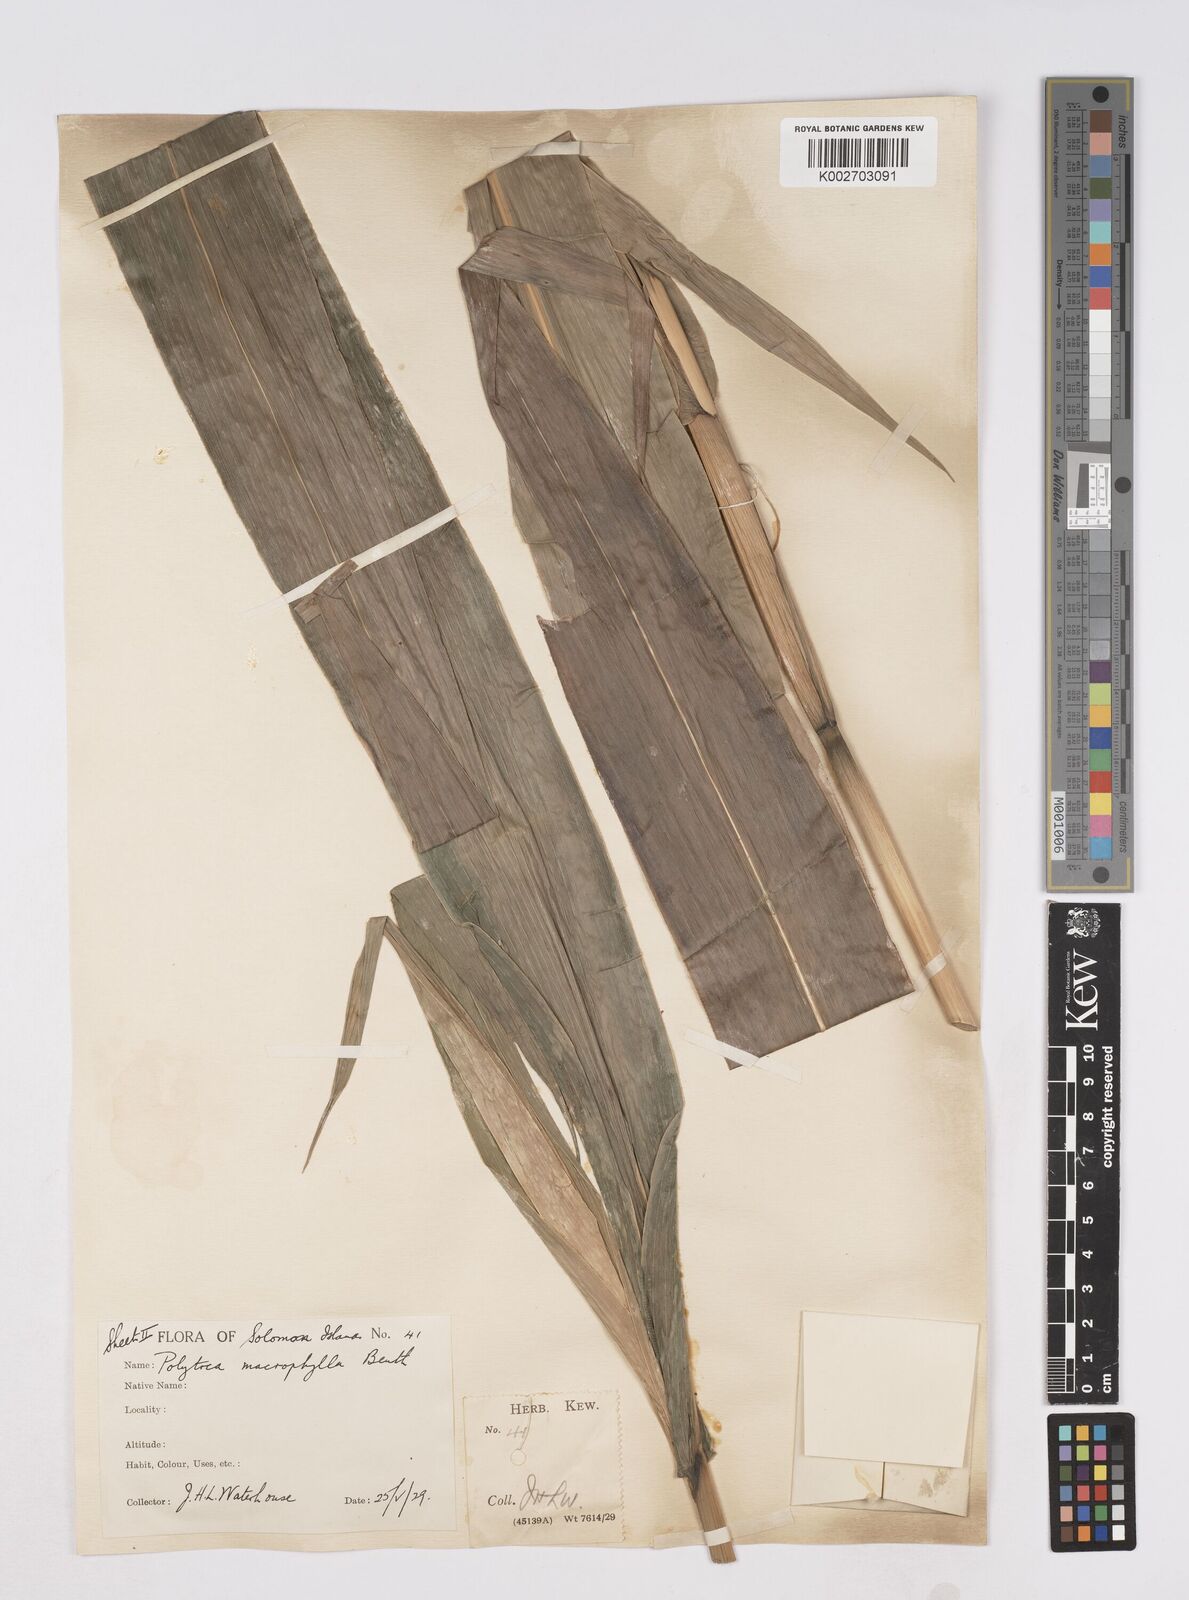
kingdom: Plantae
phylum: Tracheophyta
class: Liliopsida
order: Poales
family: Poaceae
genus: Polytoca
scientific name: Polytoca macrophylla
